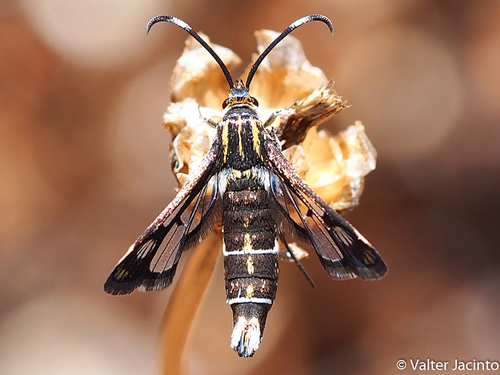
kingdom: Animalia
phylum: Arthropoda
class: Insecta
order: Lepidoptera
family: Sesiidae
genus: Pyropteron
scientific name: Pyropteron hispanica
